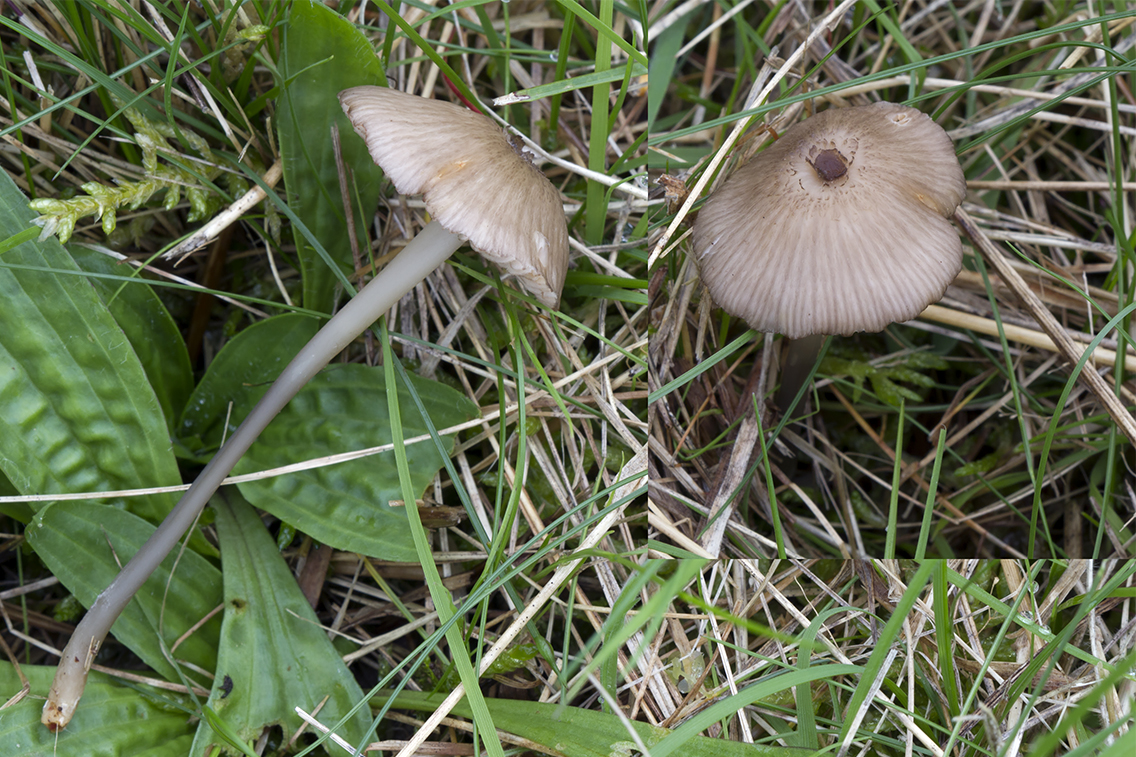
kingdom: Fungi
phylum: Basidiomycota
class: Agaricomycetes
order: Agaricales
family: Entolomataceae
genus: Entoloma
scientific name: Entoloma exile
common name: rødplettet rødblad
